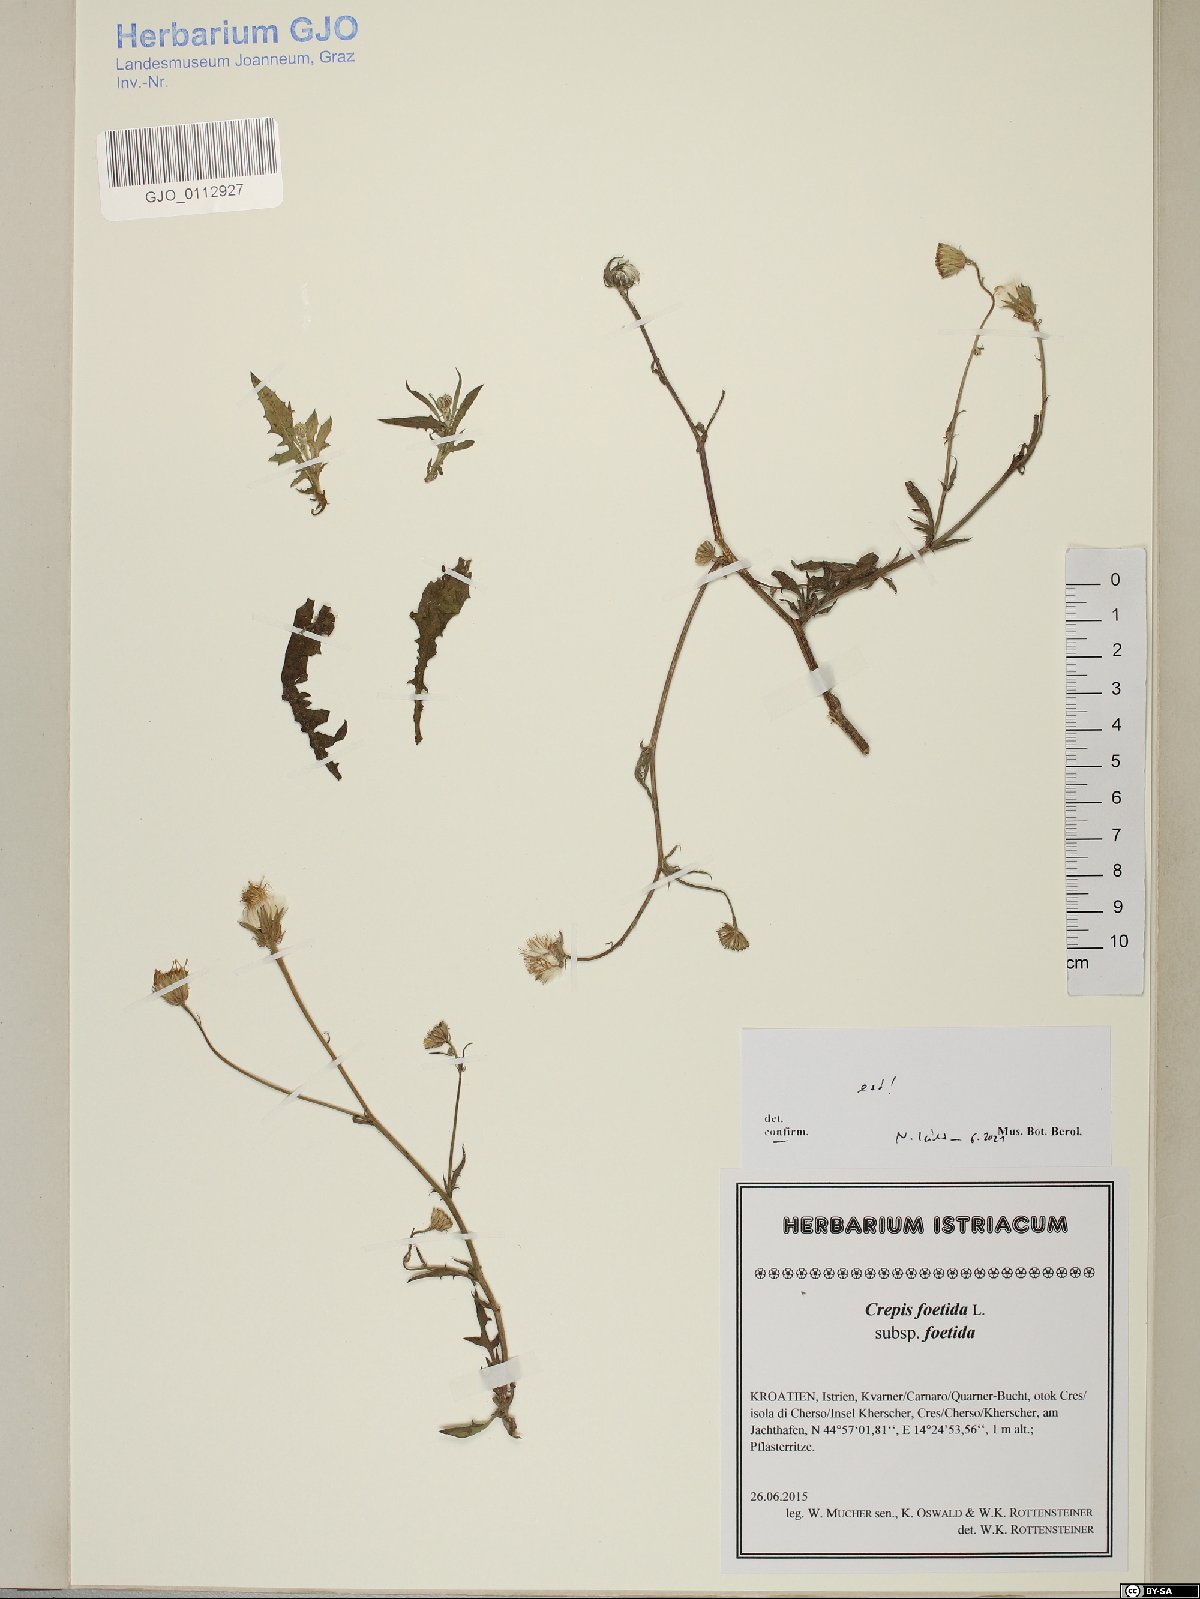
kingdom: Plantae
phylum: Tracheophyta
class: Magnoliopsida
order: Asterales
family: Asteraceae
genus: Crepis
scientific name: Crepis foetida
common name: Stinking hawk's-beard
